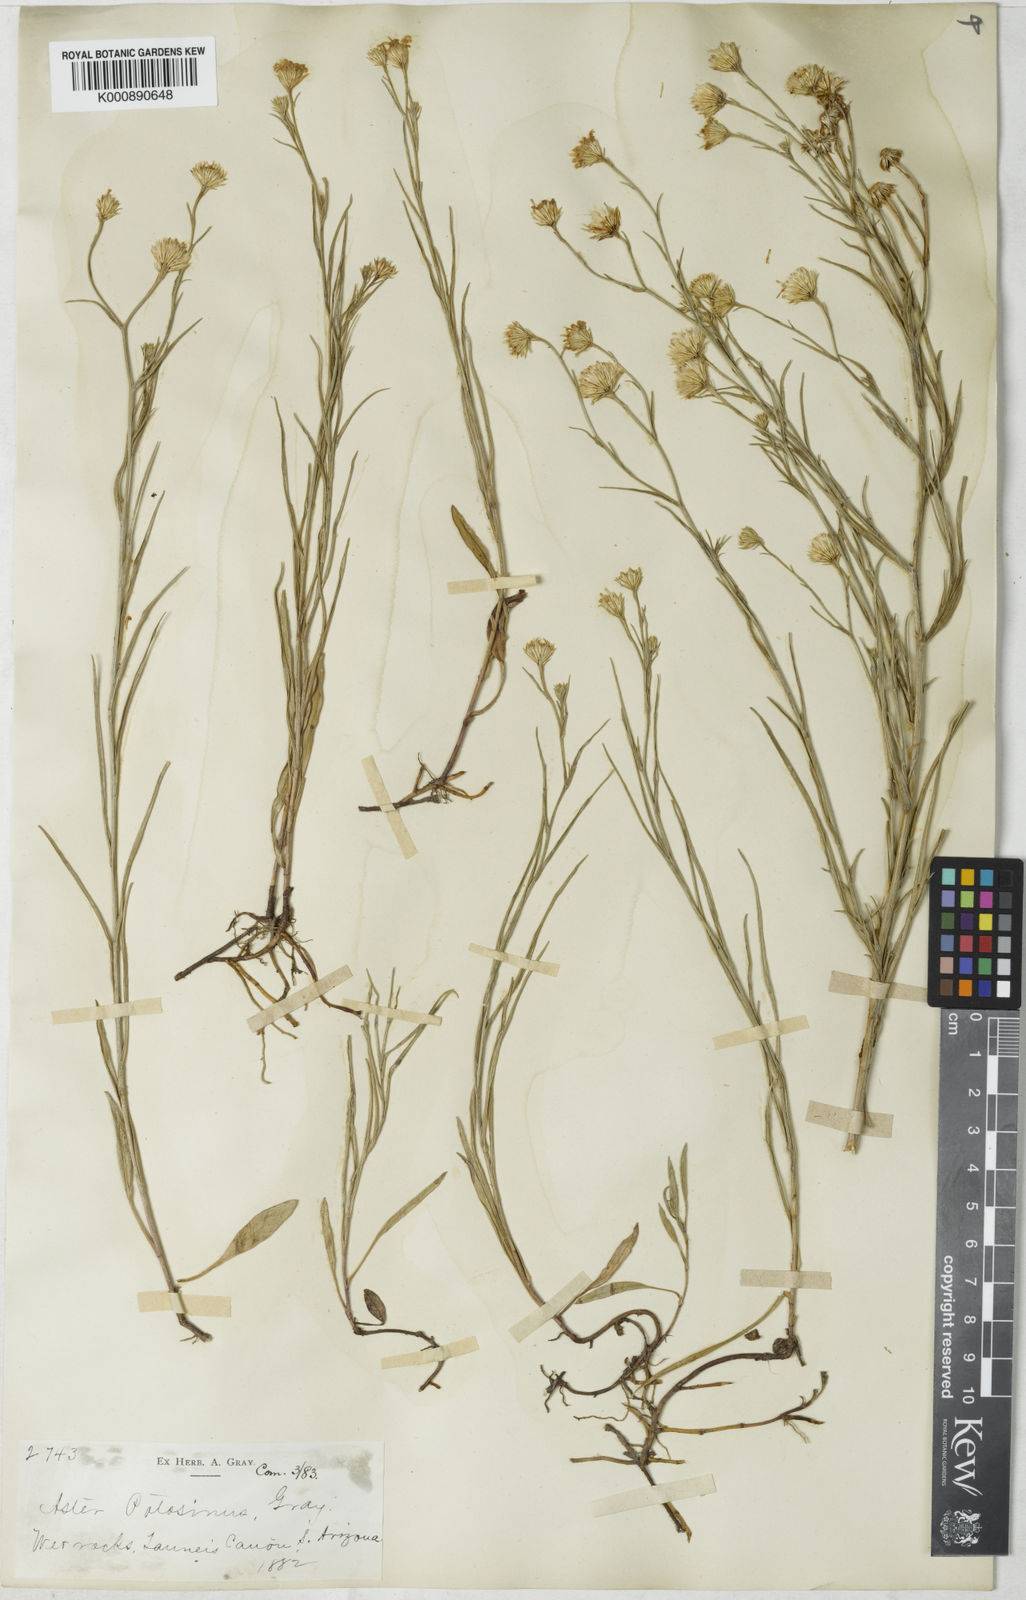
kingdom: Plantae
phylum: Tracheophyta
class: Magnoliopsida
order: Asterales
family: Asteraceae
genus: Symphyotrichum
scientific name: Symphyotrichum potosinum
